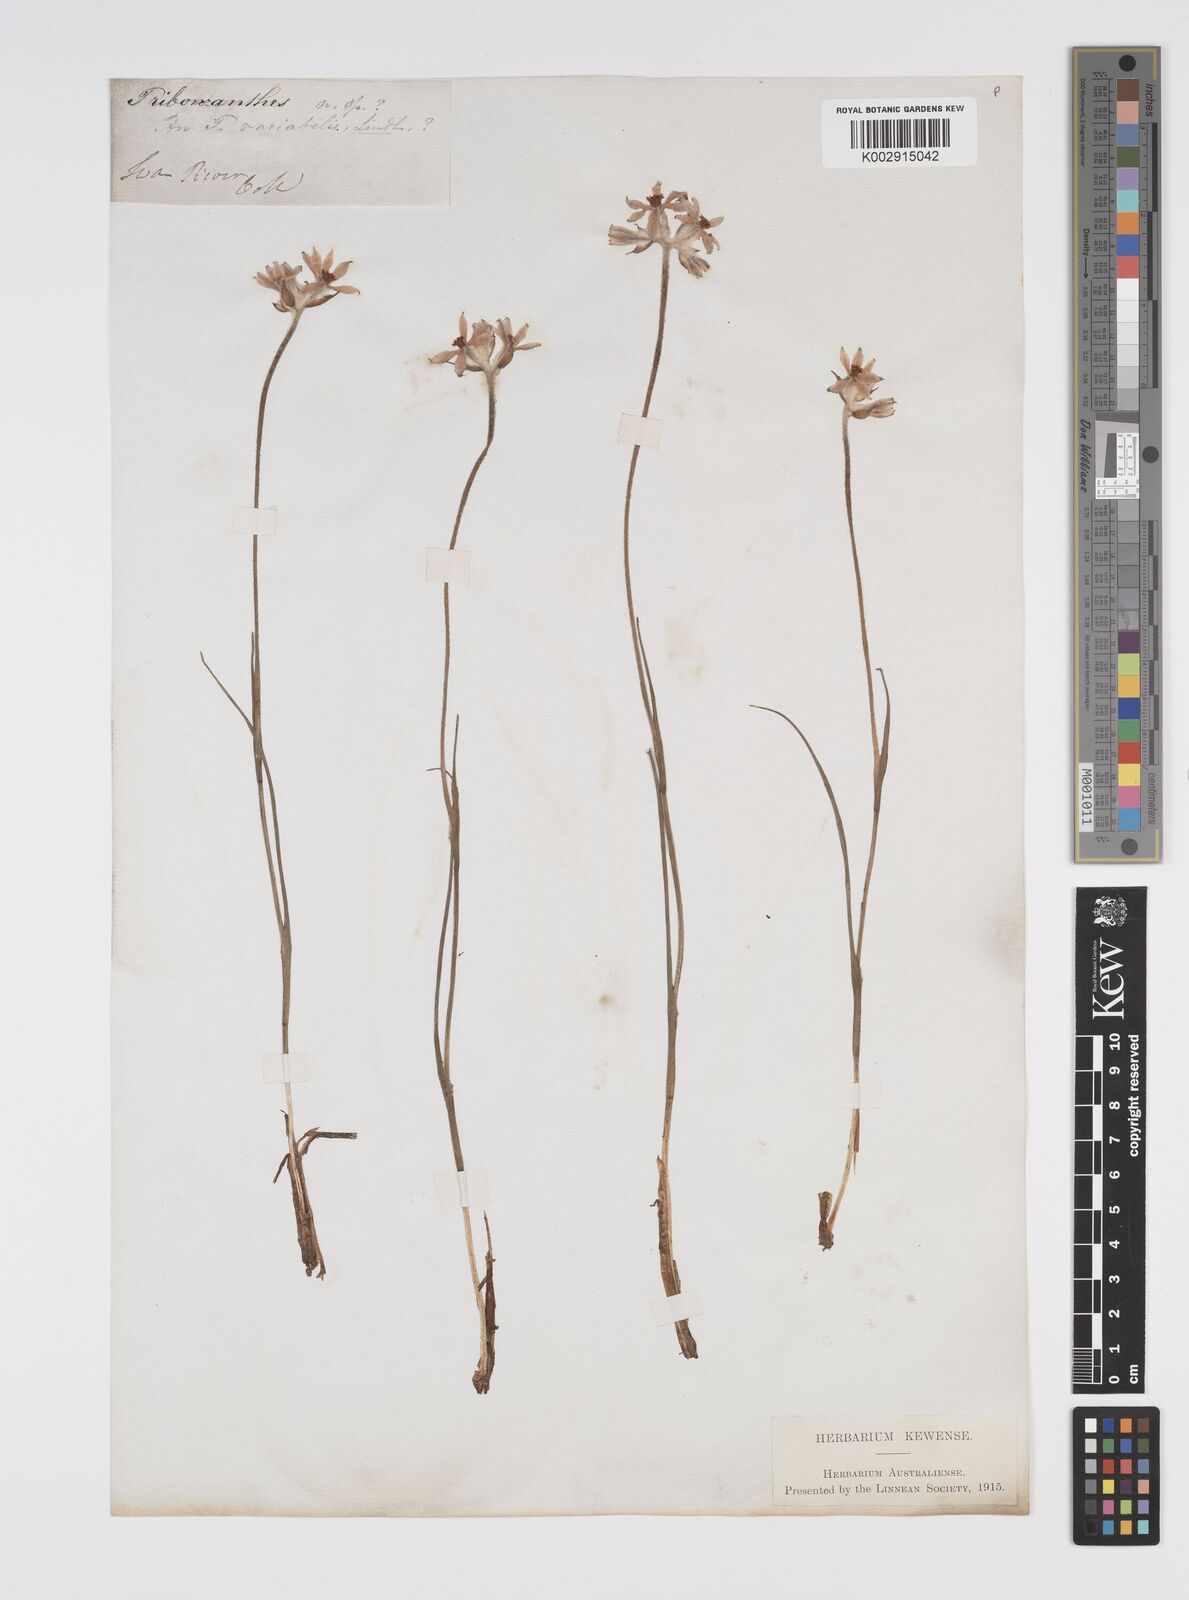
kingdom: Plantae
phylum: Tracheophyta
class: Liliopsida
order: Commelinales
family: Haemodoraceae
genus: Tribonanthes
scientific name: Tribonanthes australis
